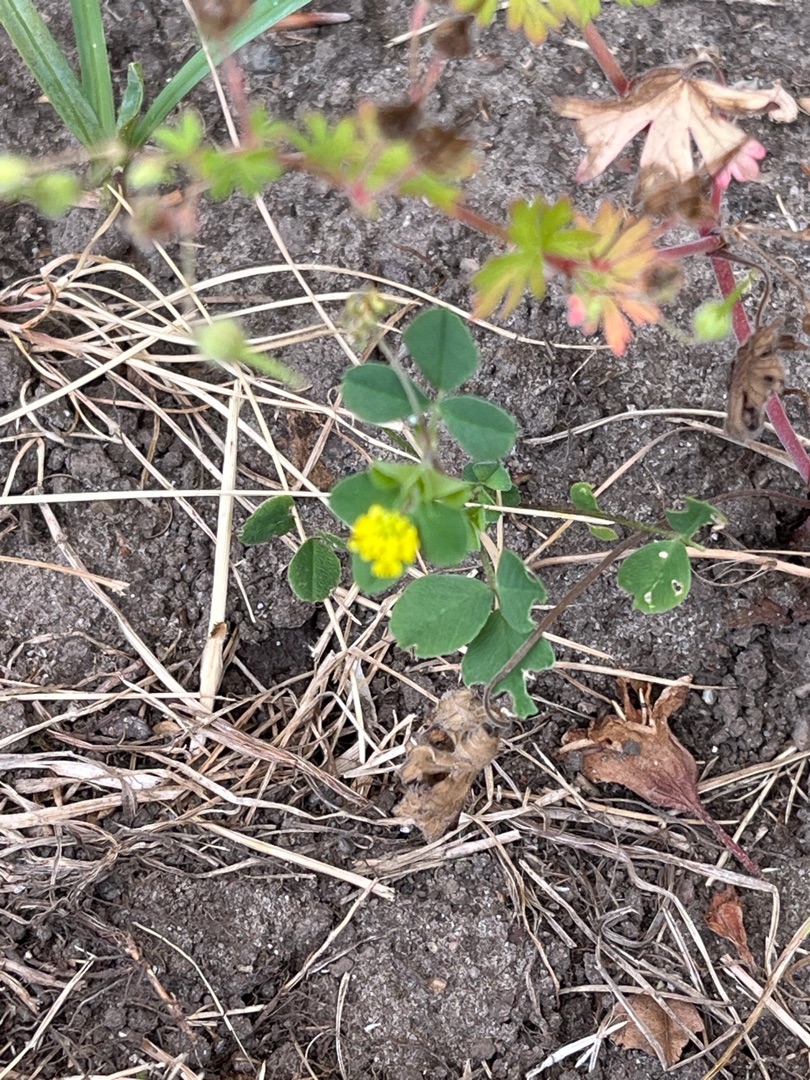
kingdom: Plantae
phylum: Tracheophyta
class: Magnoliopsida
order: Fabales
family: Fabaceae
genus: Medicago
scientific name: Medicago lupulina
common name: Humle-sneglebælg
